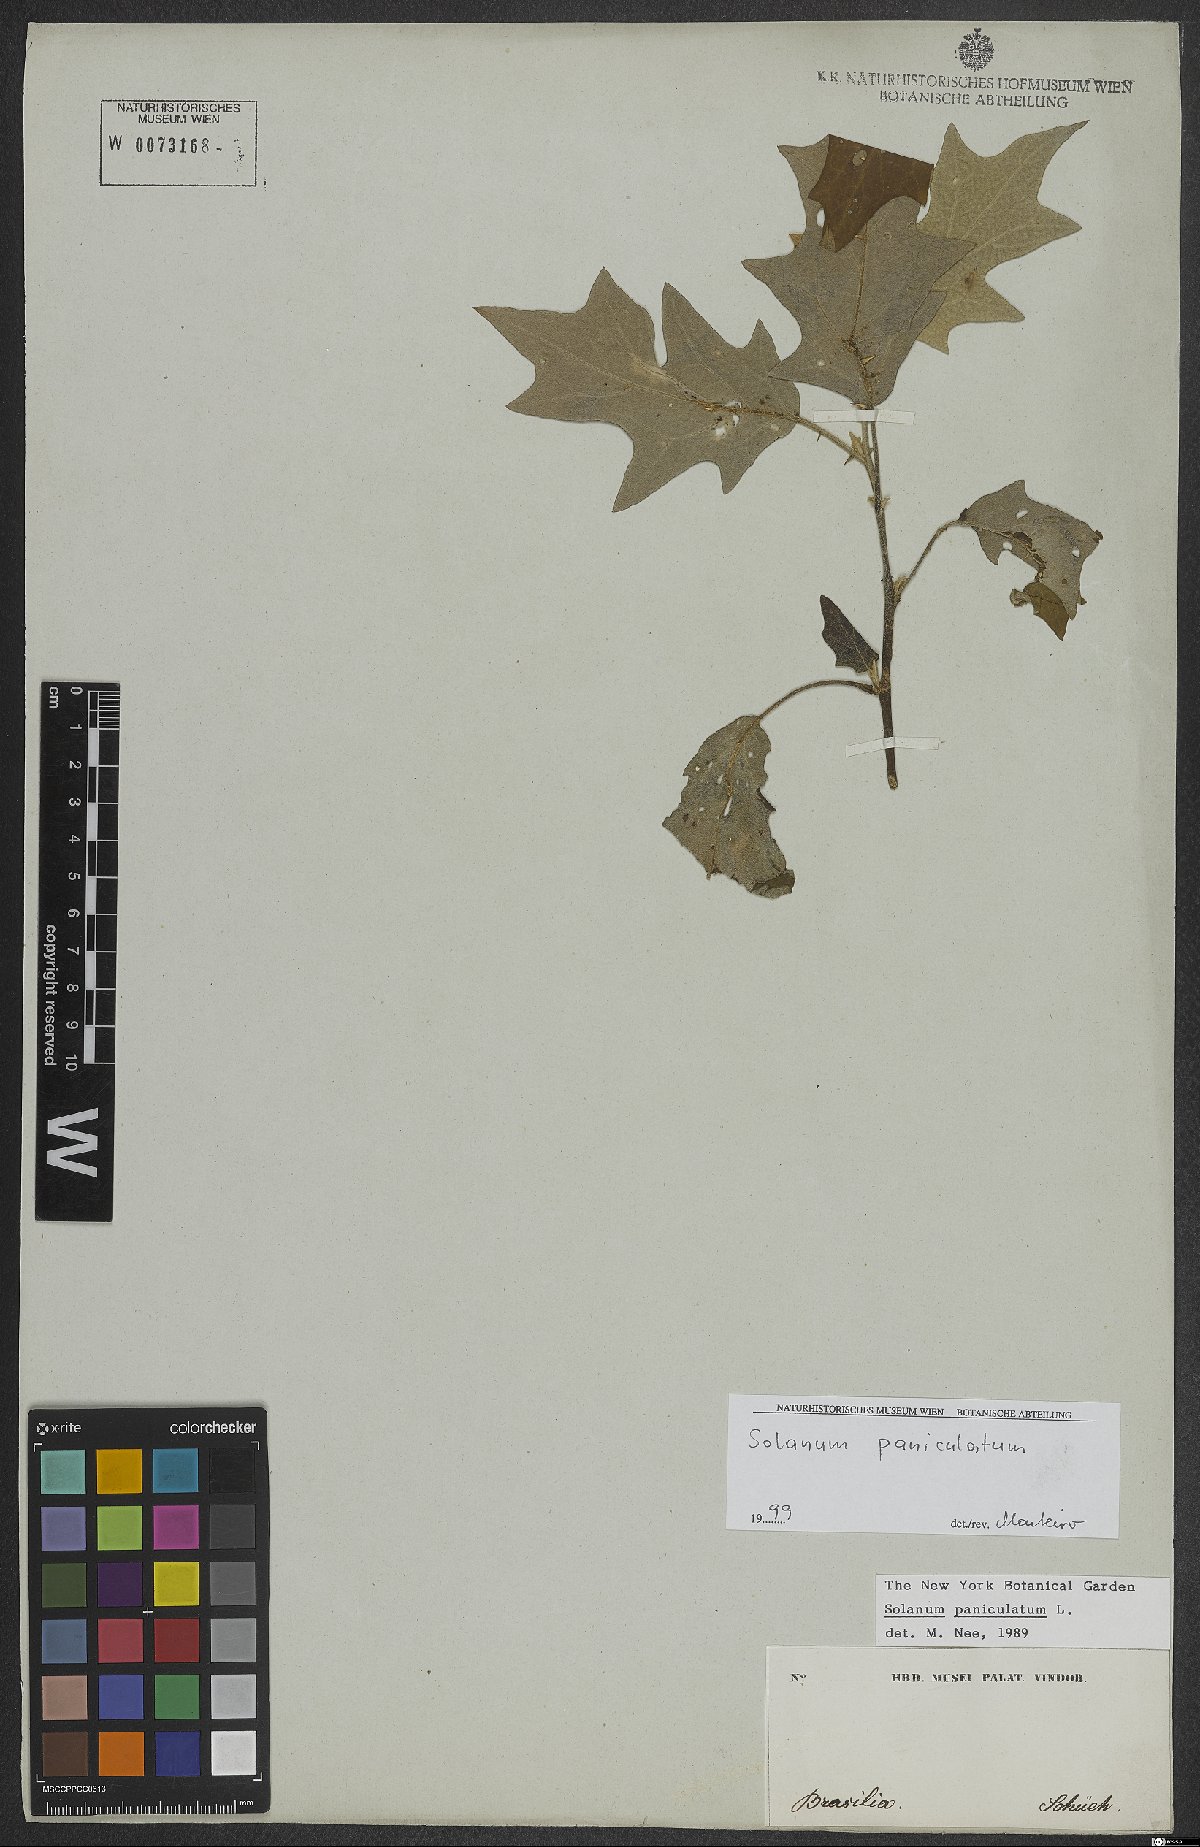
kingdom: Plantae
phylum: Tracheophyta
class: Magnoliopsida
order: Solanales
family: Solanaceae
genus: Solanum
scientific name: Solanum paniculatum
